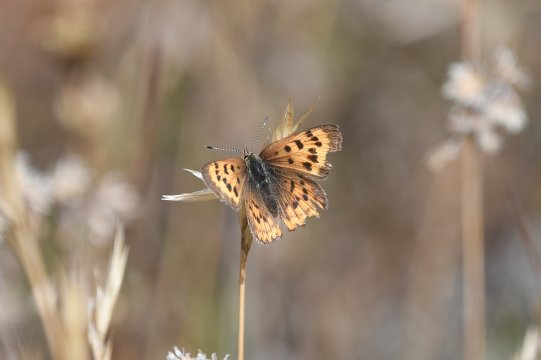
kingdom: Animalia
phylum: Arthropoda
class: Insecta
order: Lepidoptera
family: Sesiidae
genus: Sesia
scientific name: Sesia Lycaena helloides
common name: Purplish Copper
